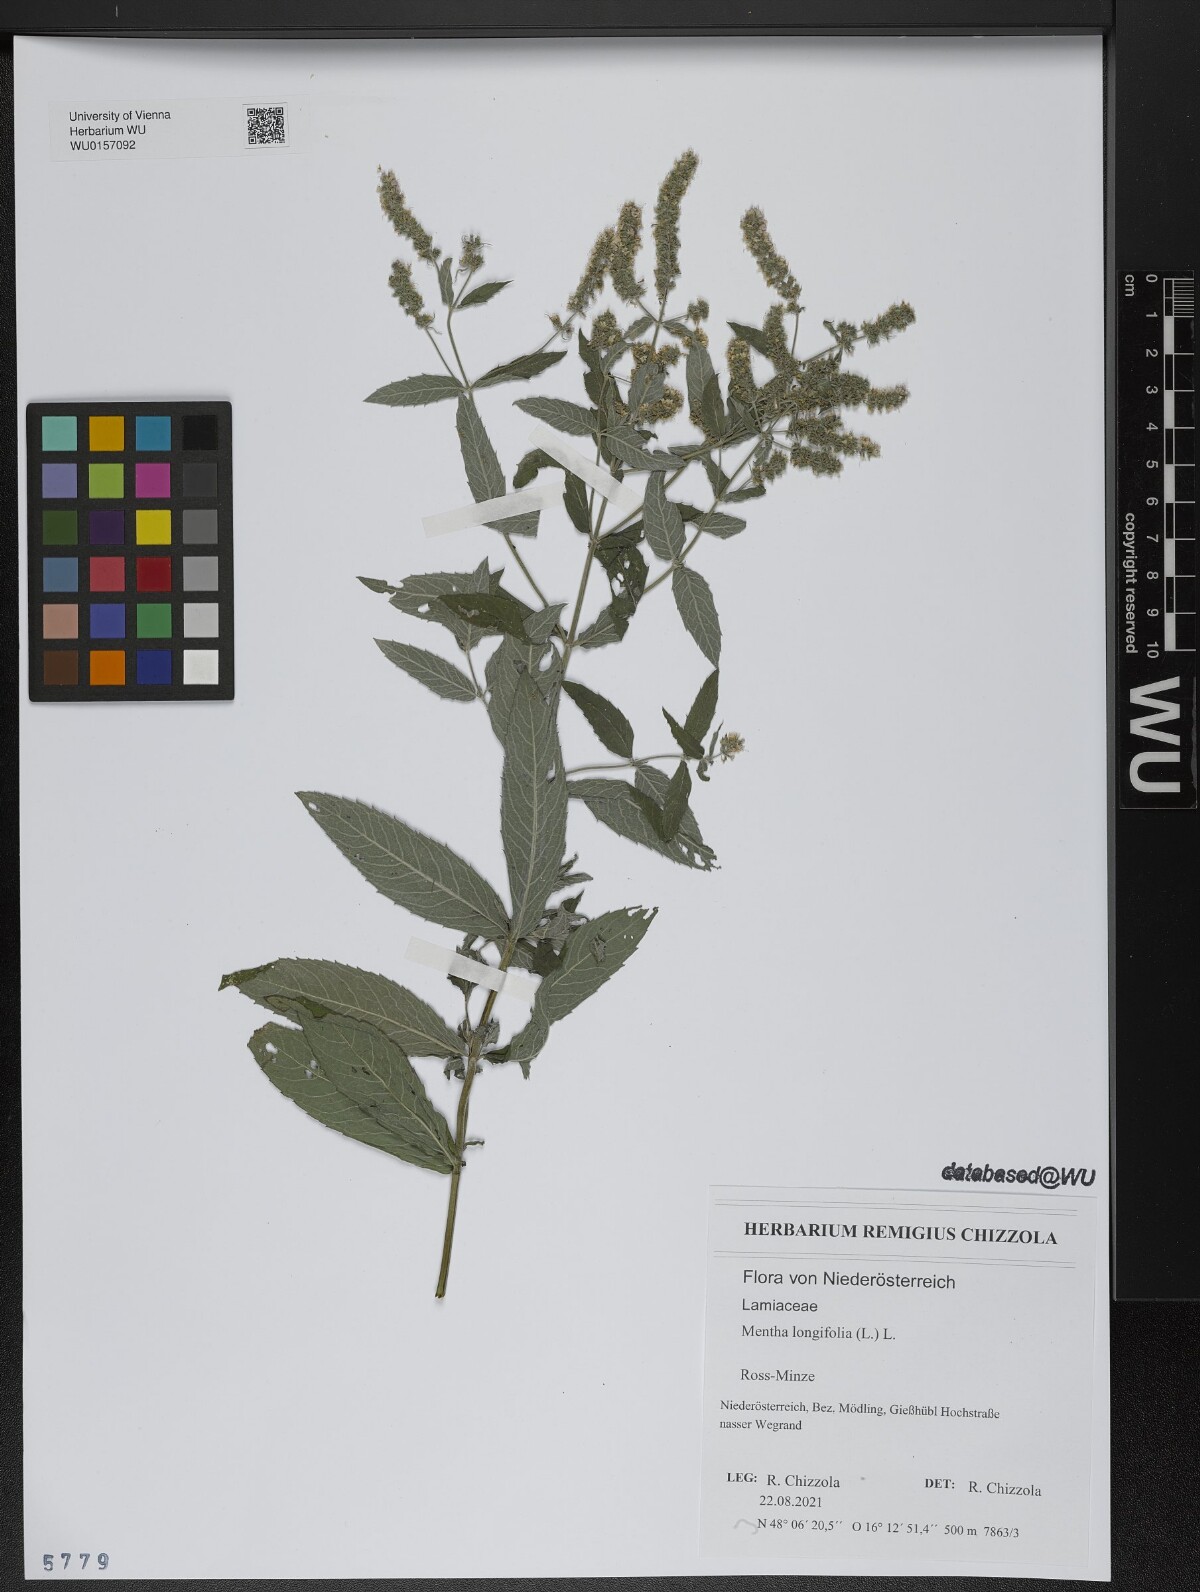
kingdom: Plantae
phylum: Tracheophyta
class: Magnoliopsida
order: Lamiales
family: Lamiaceae
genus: Mentha
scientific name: Mentha longifolia
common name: Horse mint
